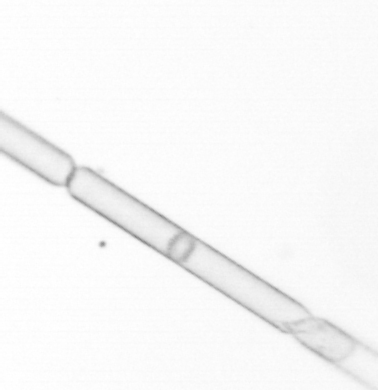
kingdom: Chromista
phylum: Ochrophyta
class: Bacillariophyceae
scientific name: Bacillariophyceae
